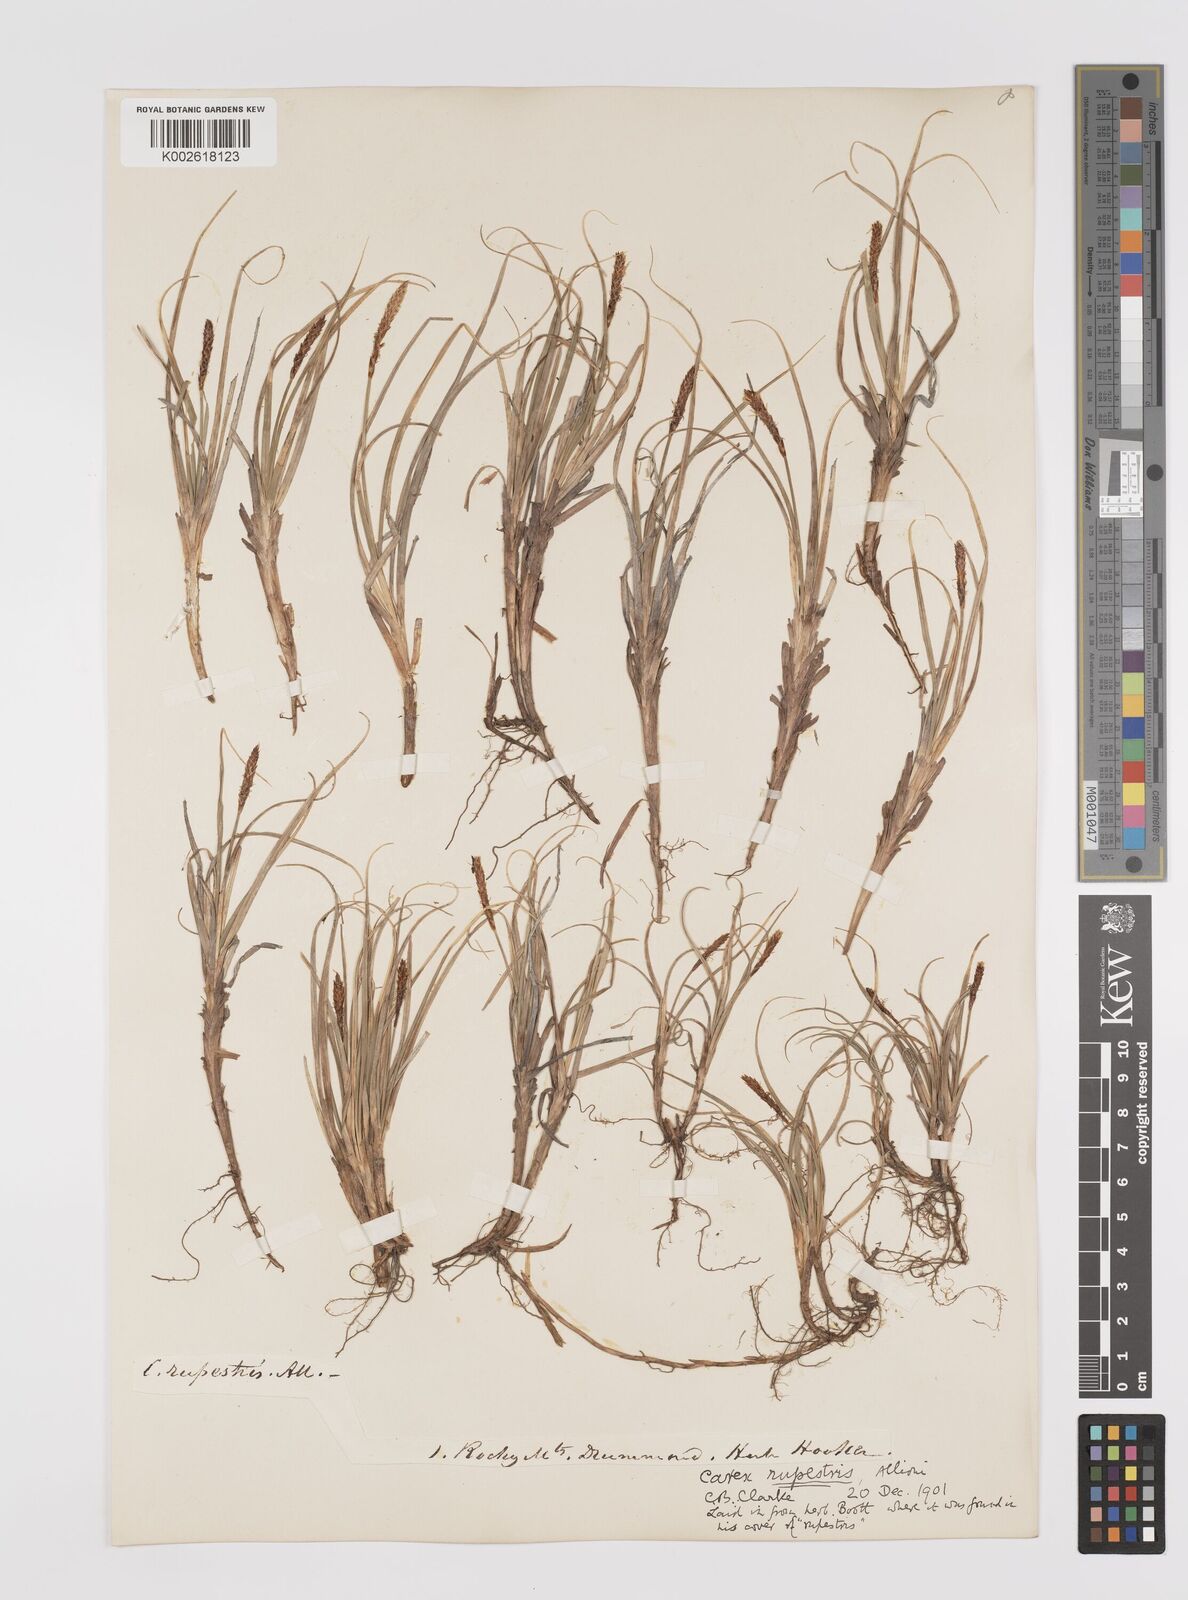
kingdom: Plantae
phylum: Tracheophyta
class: Liliopsida
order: Poales
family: Cyperaceae
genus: Carex
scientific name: Carex rupestris
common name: Rock sedge
